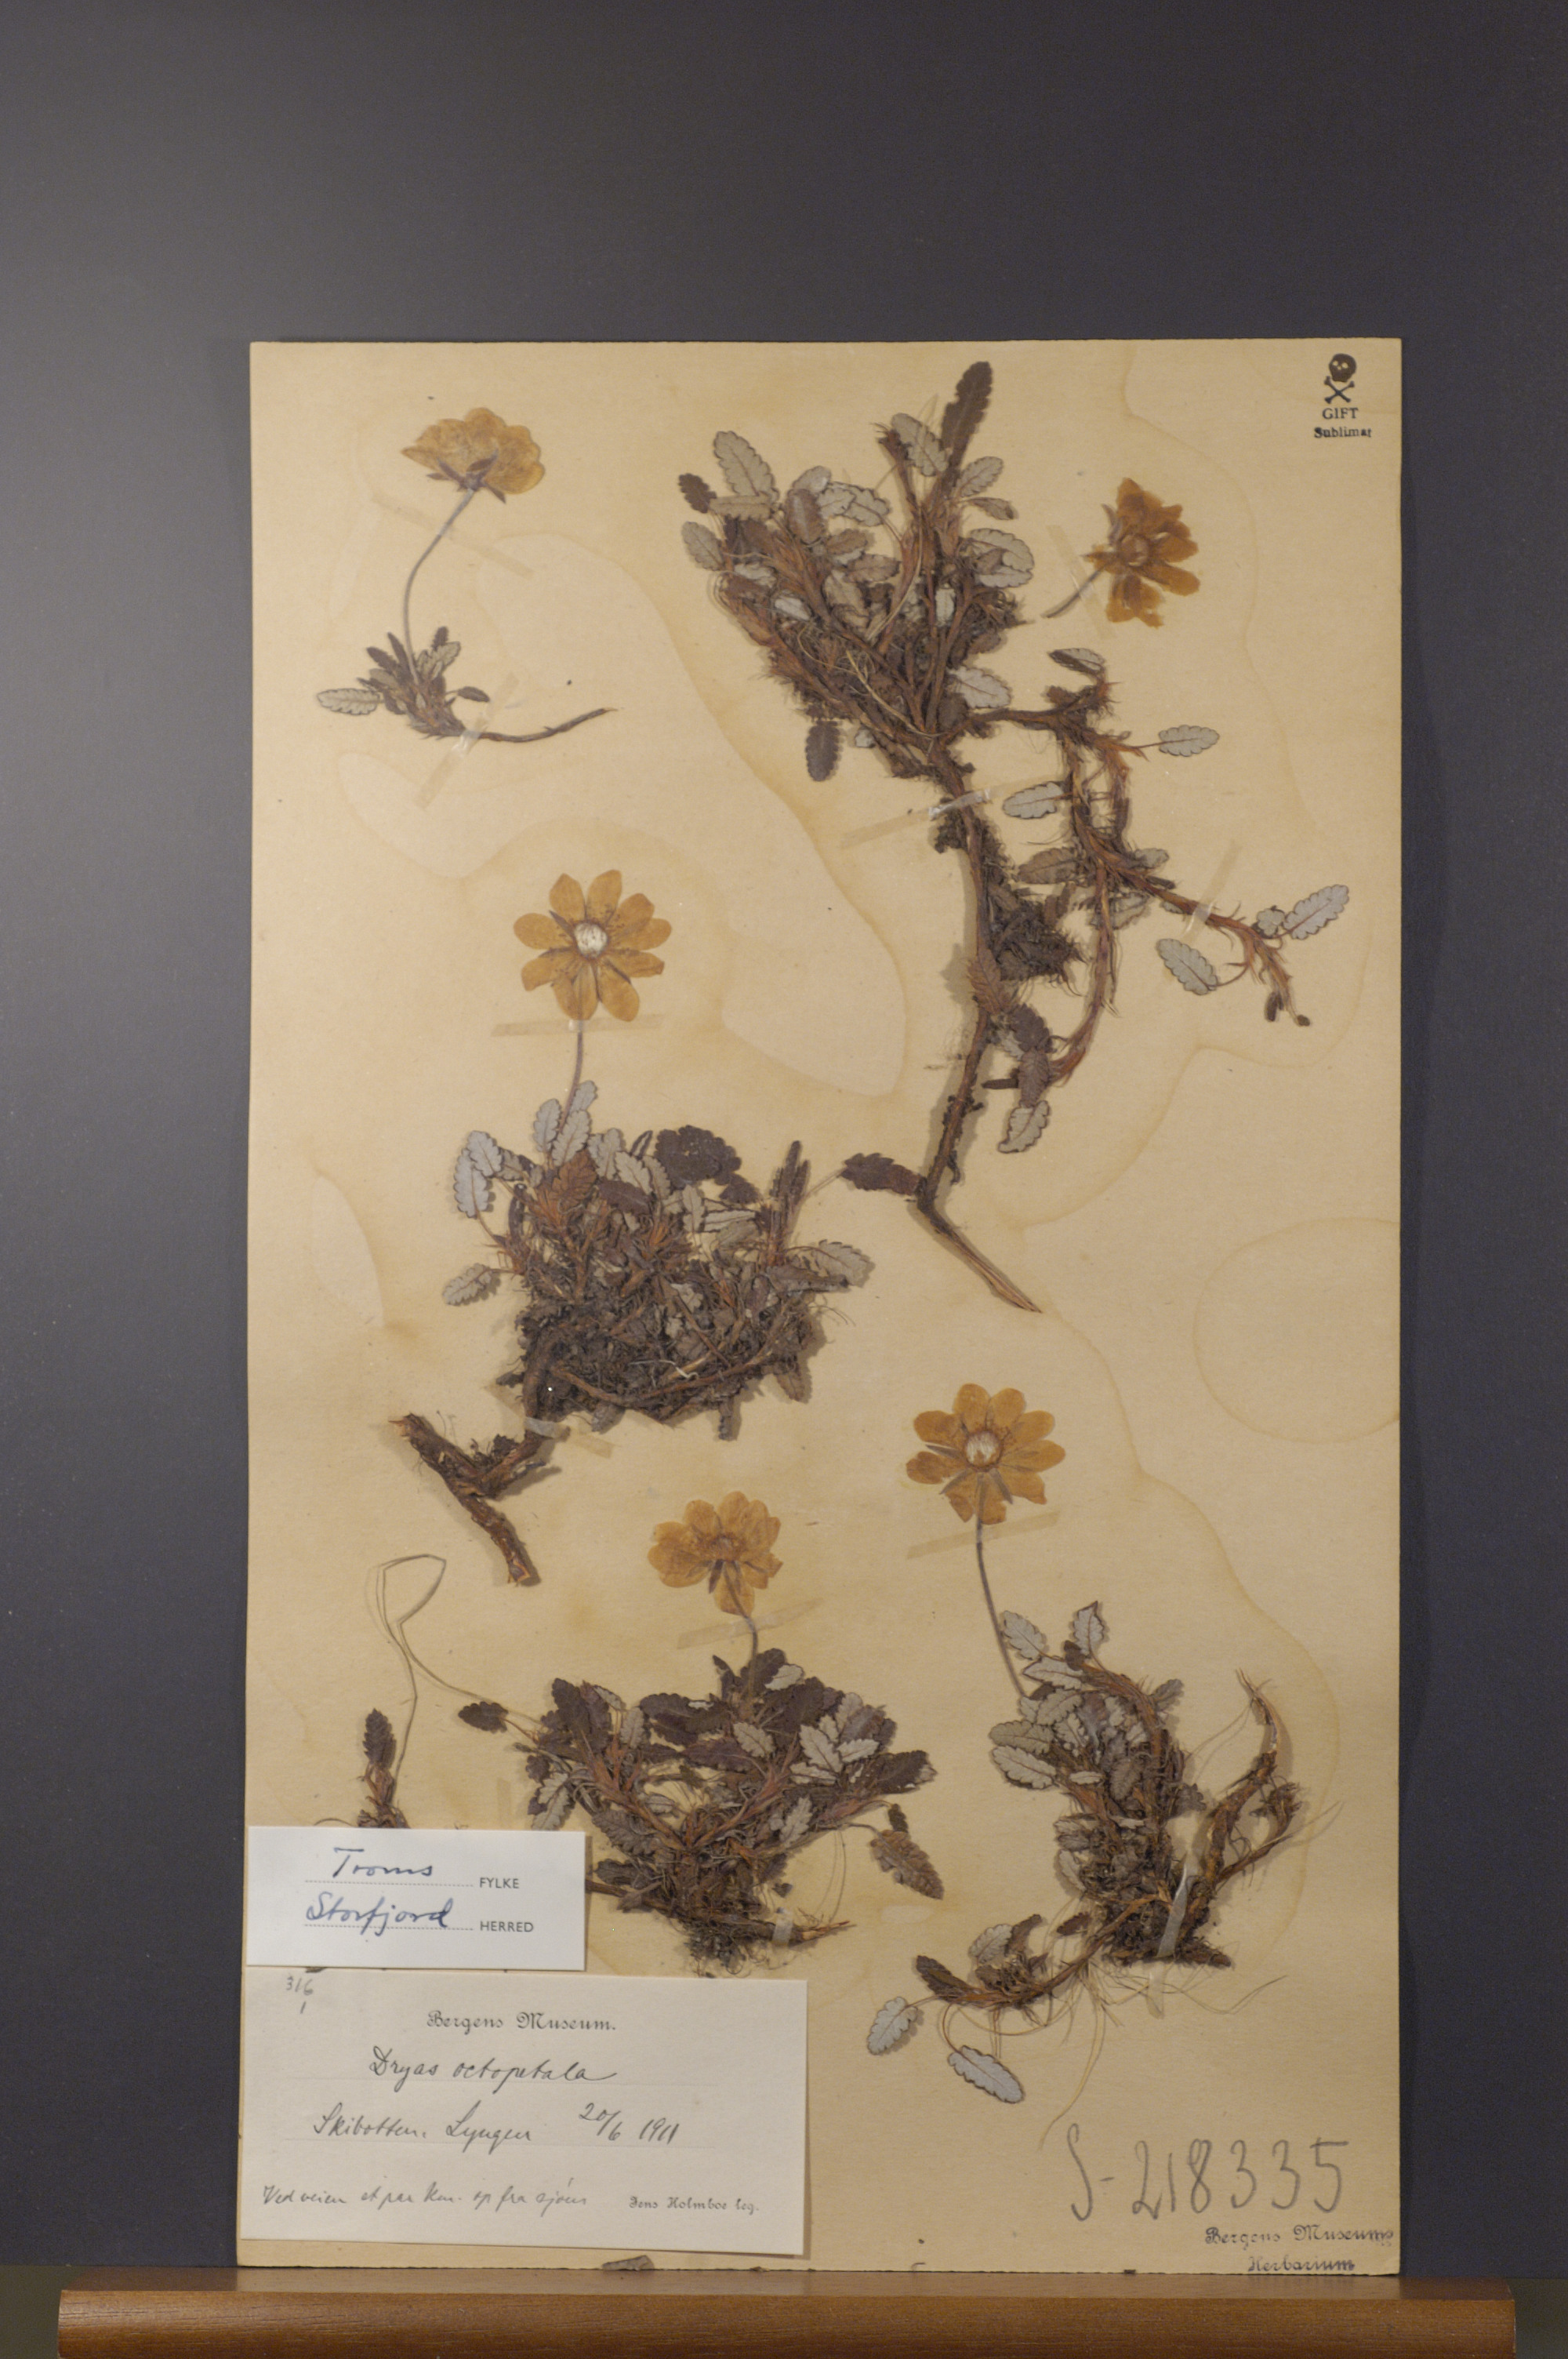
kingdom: Plantae
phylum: Tracheophyta
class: Magnoliopsida
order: Rosales
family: Rosaceae
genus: Dryas
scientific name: Dryas octopetala
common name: Eight-petal mountain-avens
